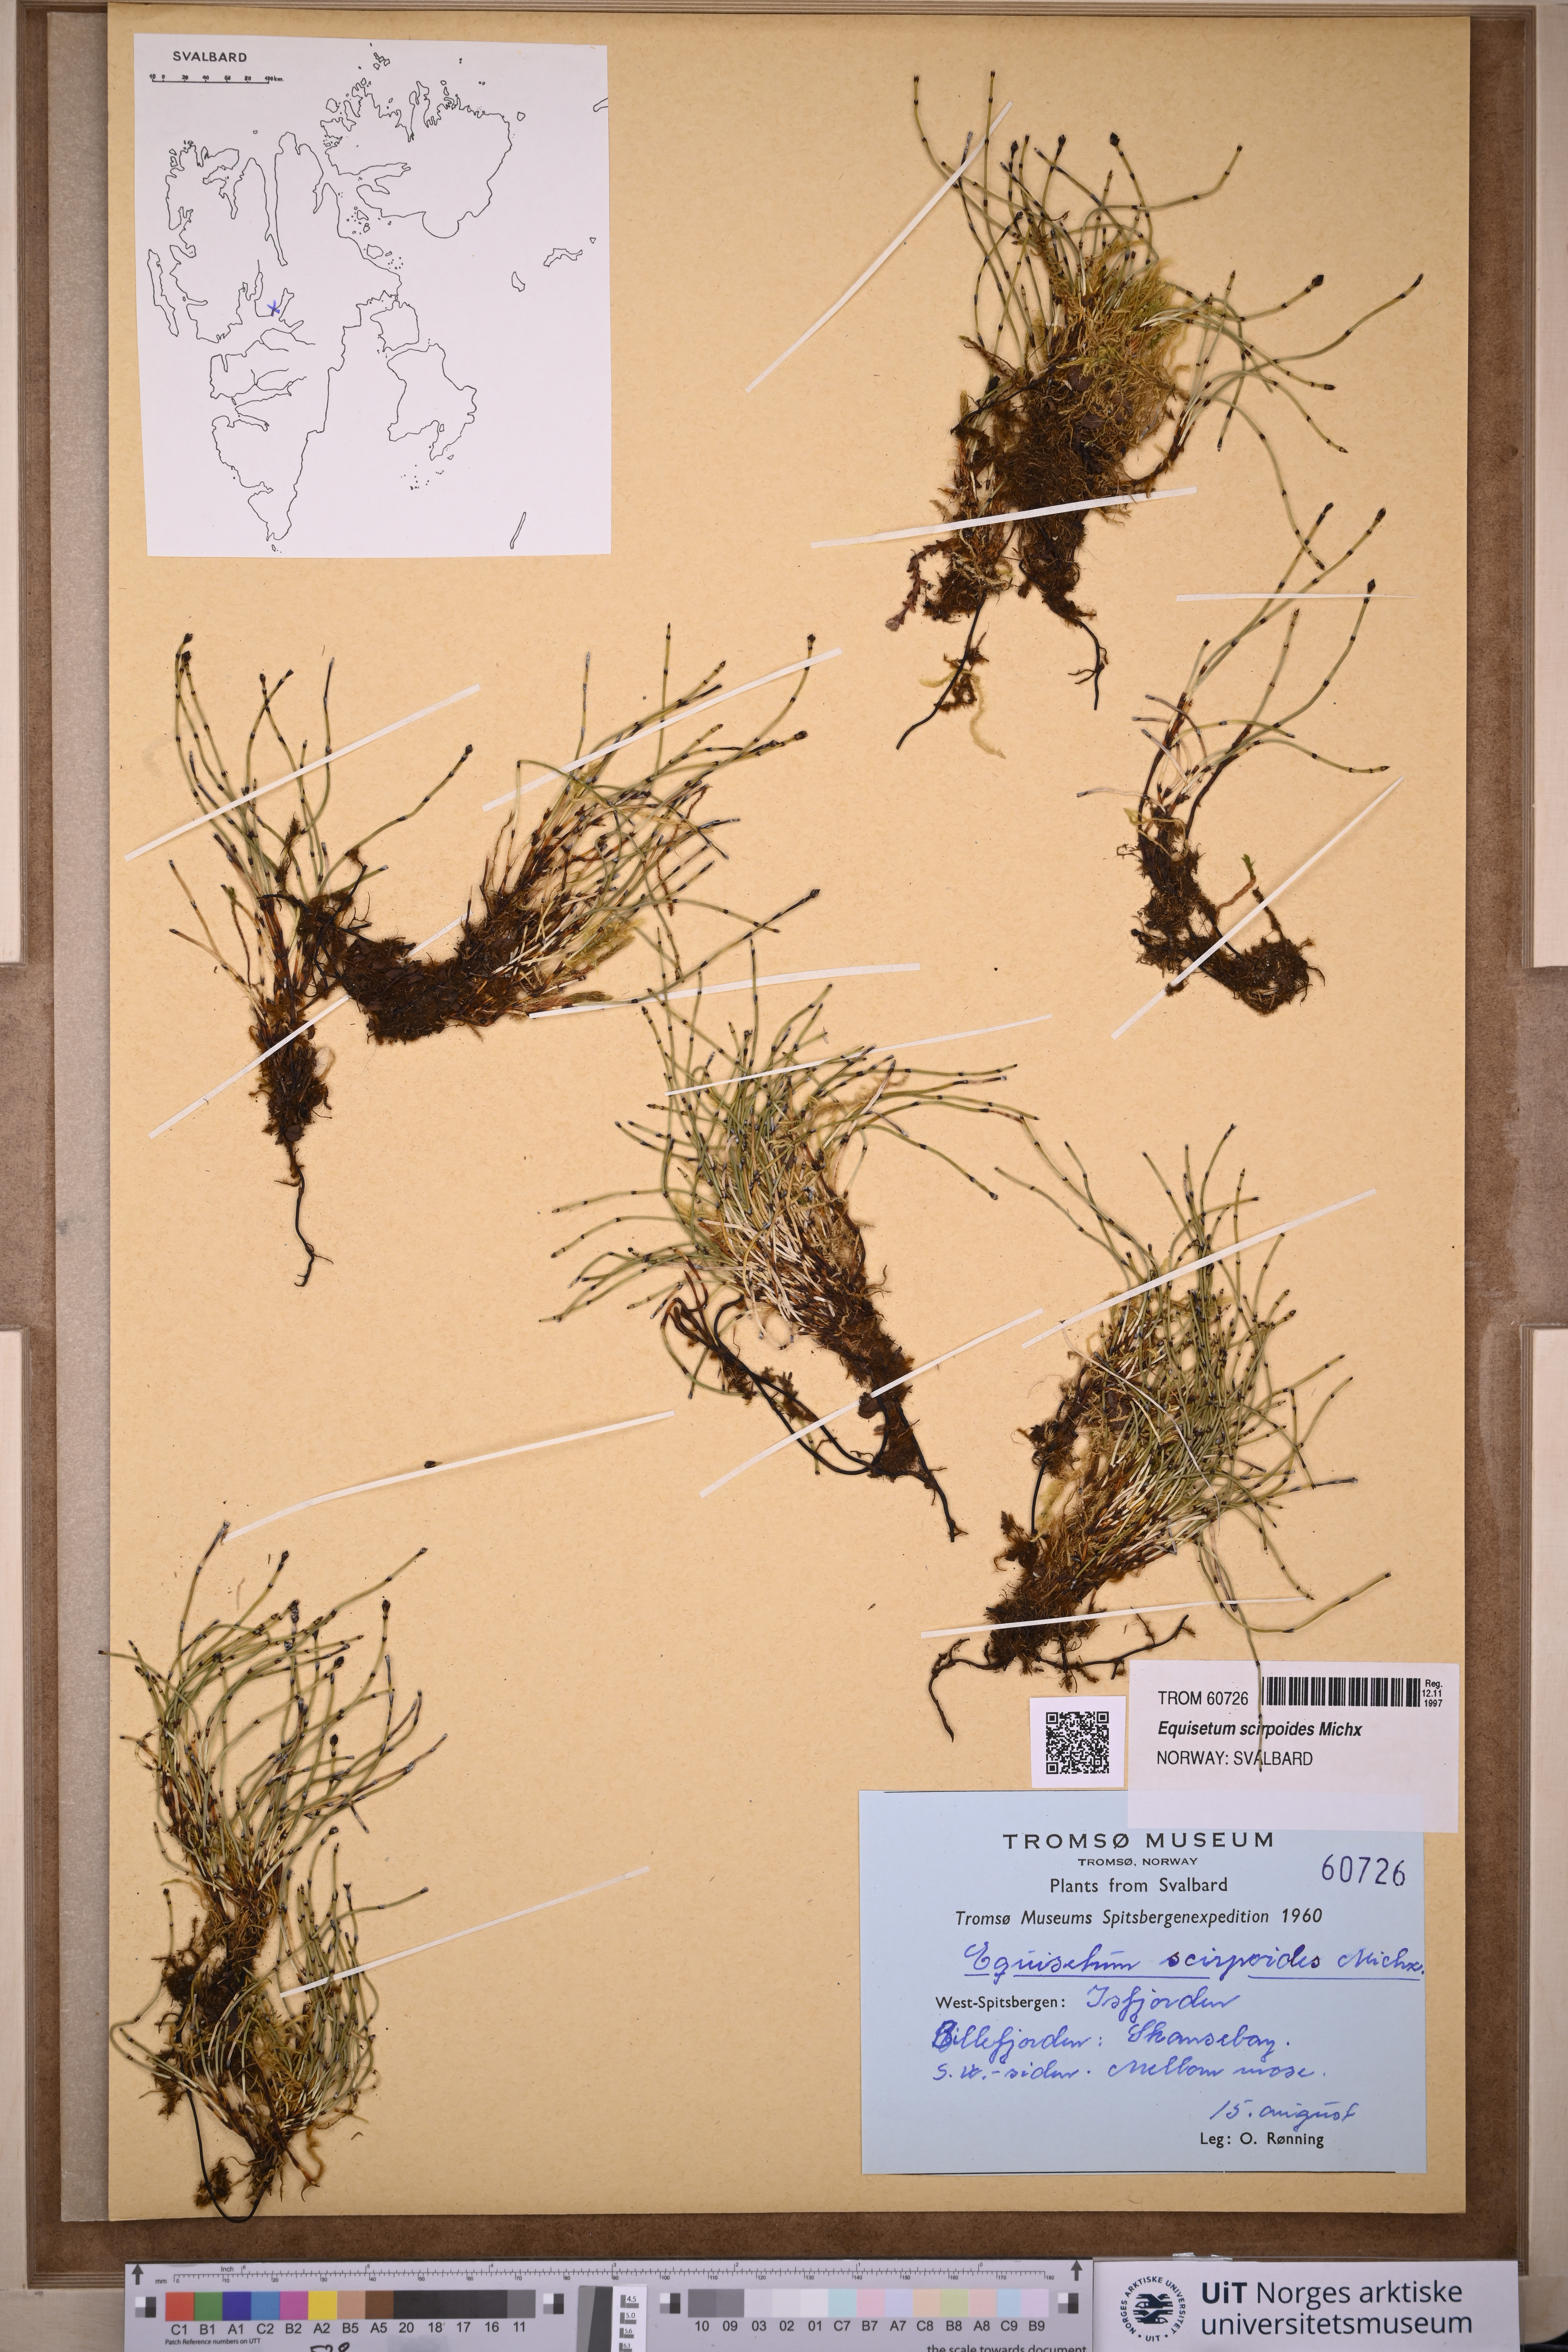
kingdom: Plantae
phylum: Tracheophyta
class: Polypodiopsida
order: Equisetales
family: Equisetaceae
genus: Equisetum
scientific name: Equisetum scirpoides
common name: Delicate horsetail
